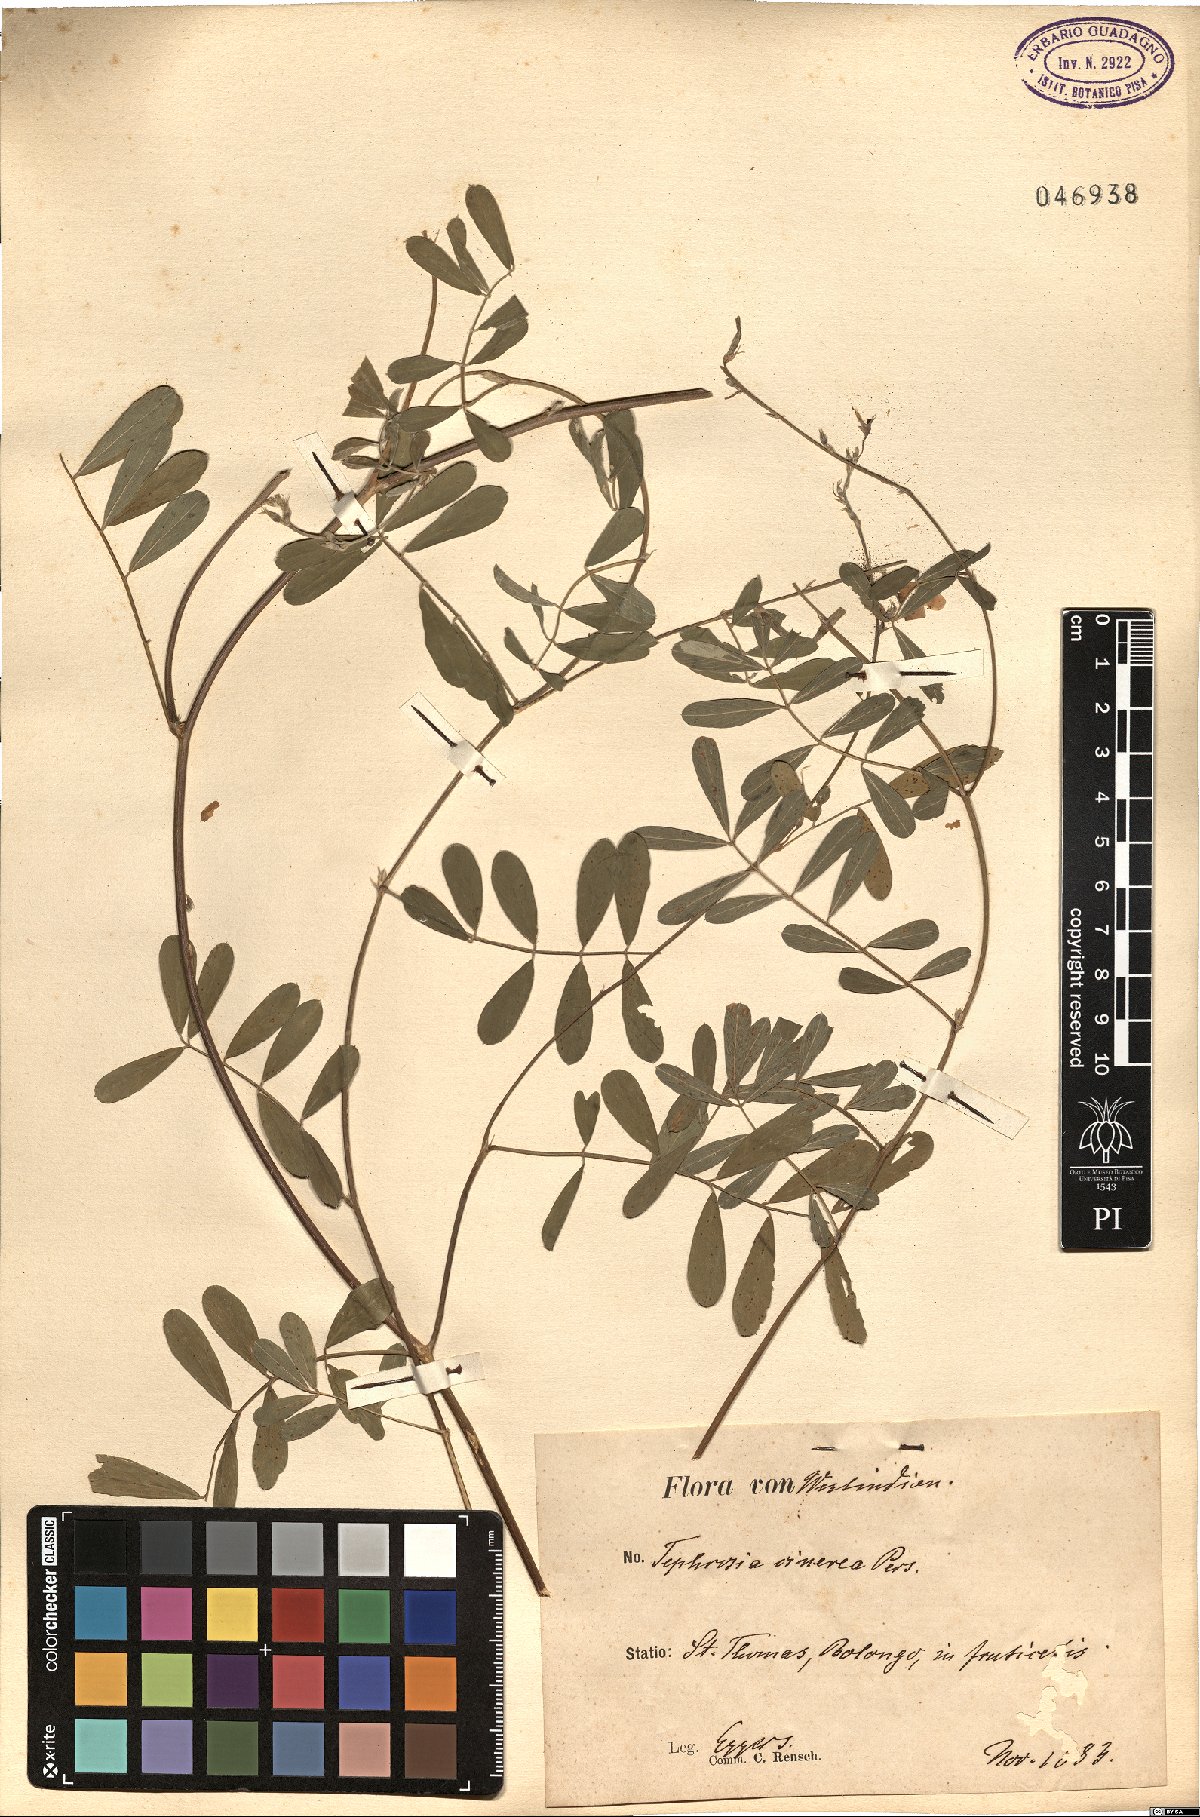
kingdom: Plantae
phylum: Tracheophyta
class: Magnoliopsida
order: Fabales
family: Fabaceae
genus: Tephrosia
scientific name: Tephrosia cinerea
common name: Ashen hoarypea
